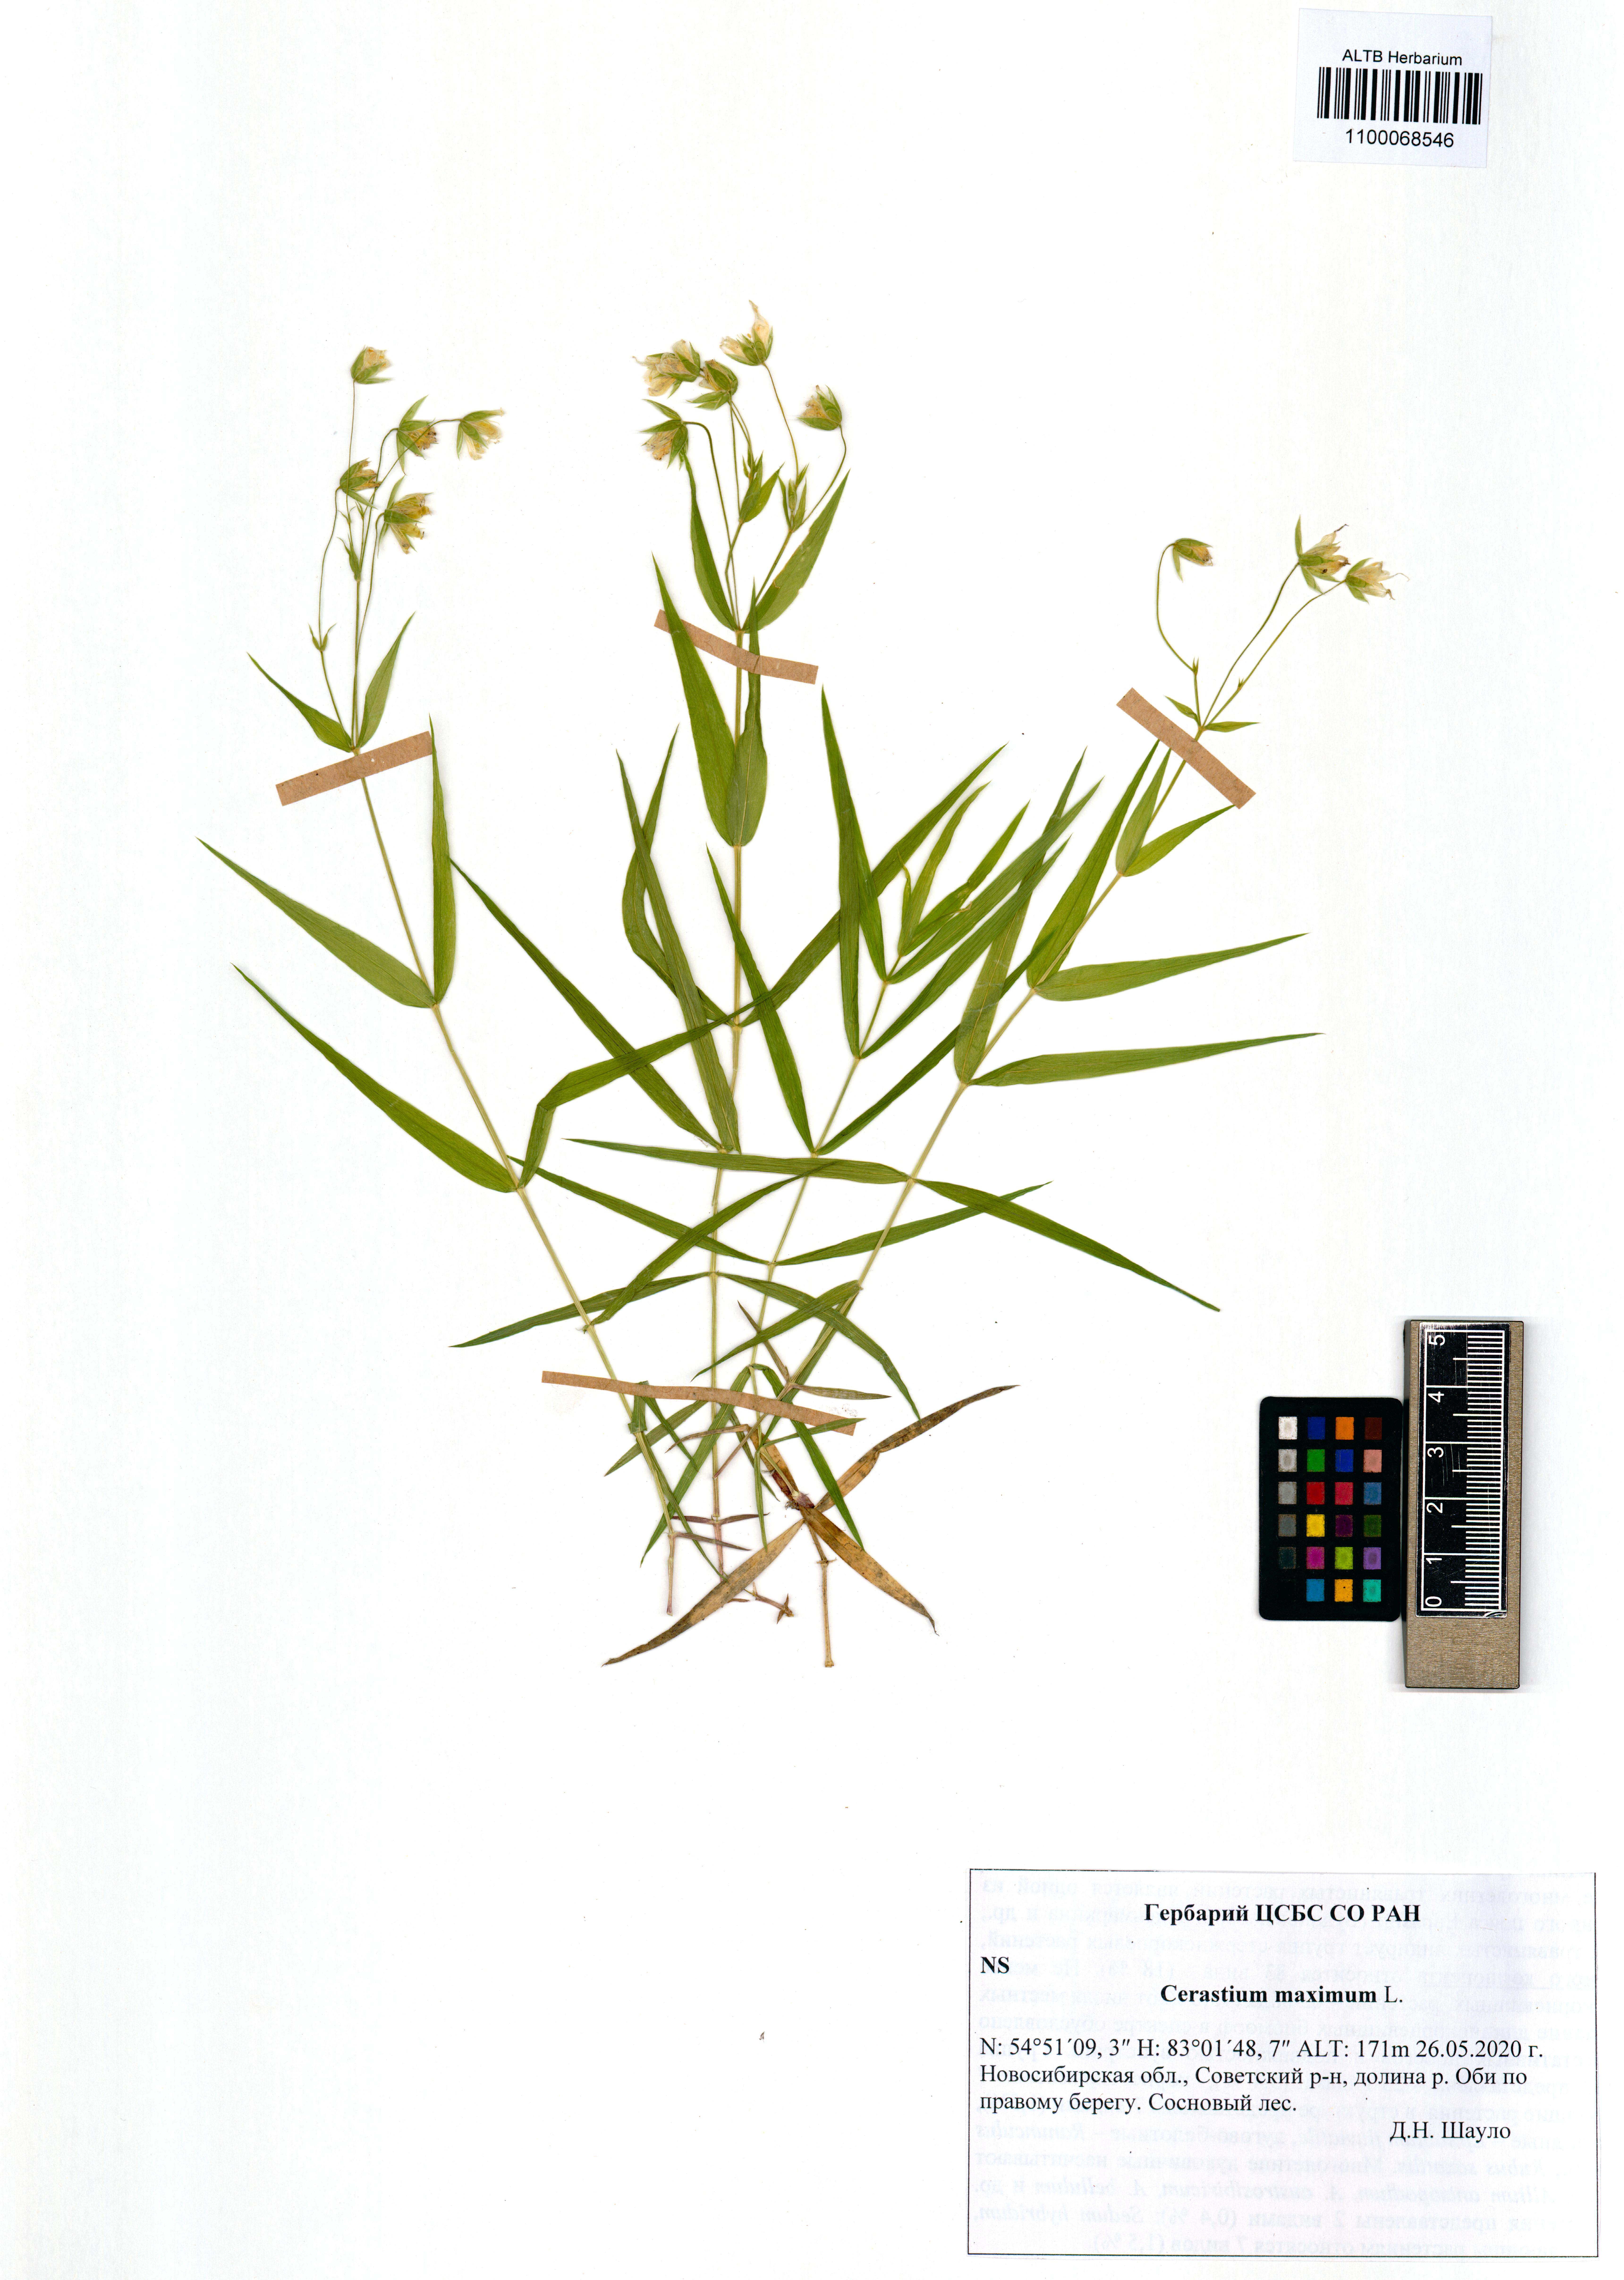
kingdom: Plantae
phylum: Tracheophyta
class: Magnoliopsida
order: Caryophyllales
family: Caryophyllaceae
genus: Dichodon
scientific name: Dichodon maximum
